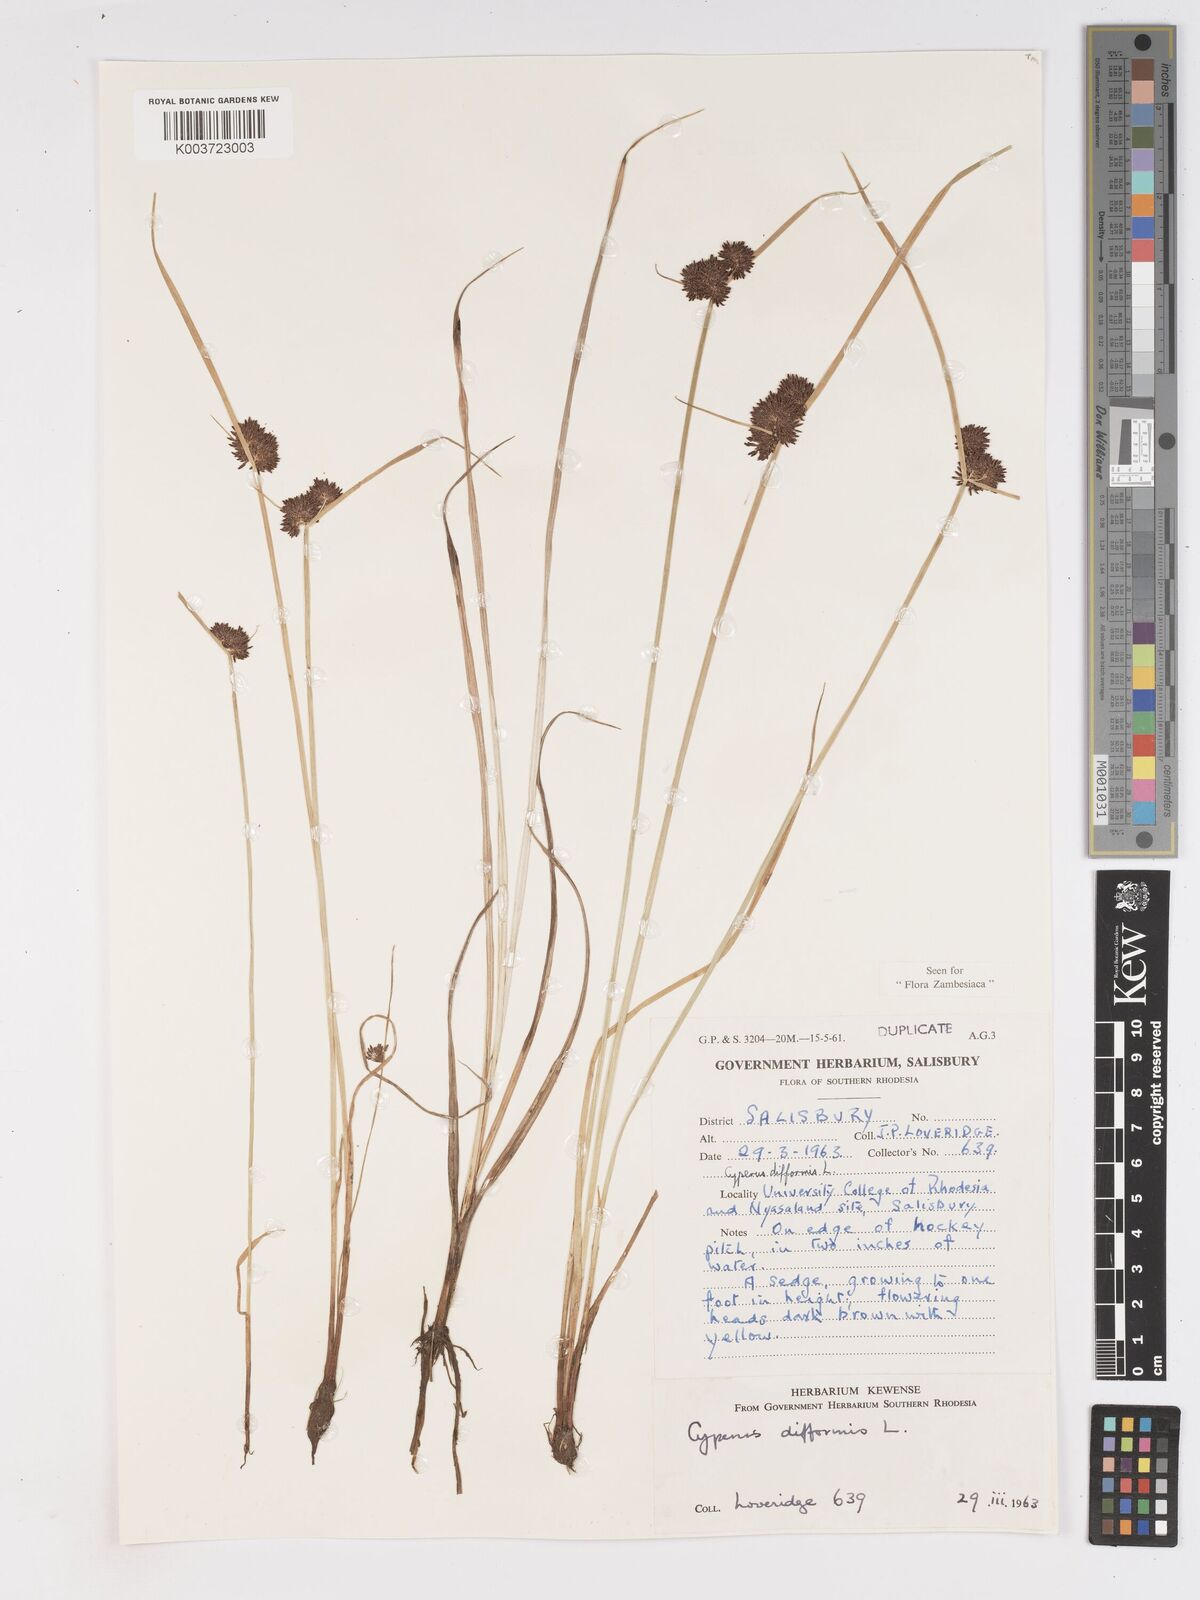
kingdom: Plantae
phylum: Tracheophyta
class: Liliopsida
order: Poales
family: Cyperaceae
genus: Cyperus
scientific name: Cyperus difformis
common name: Variable flatsedge
